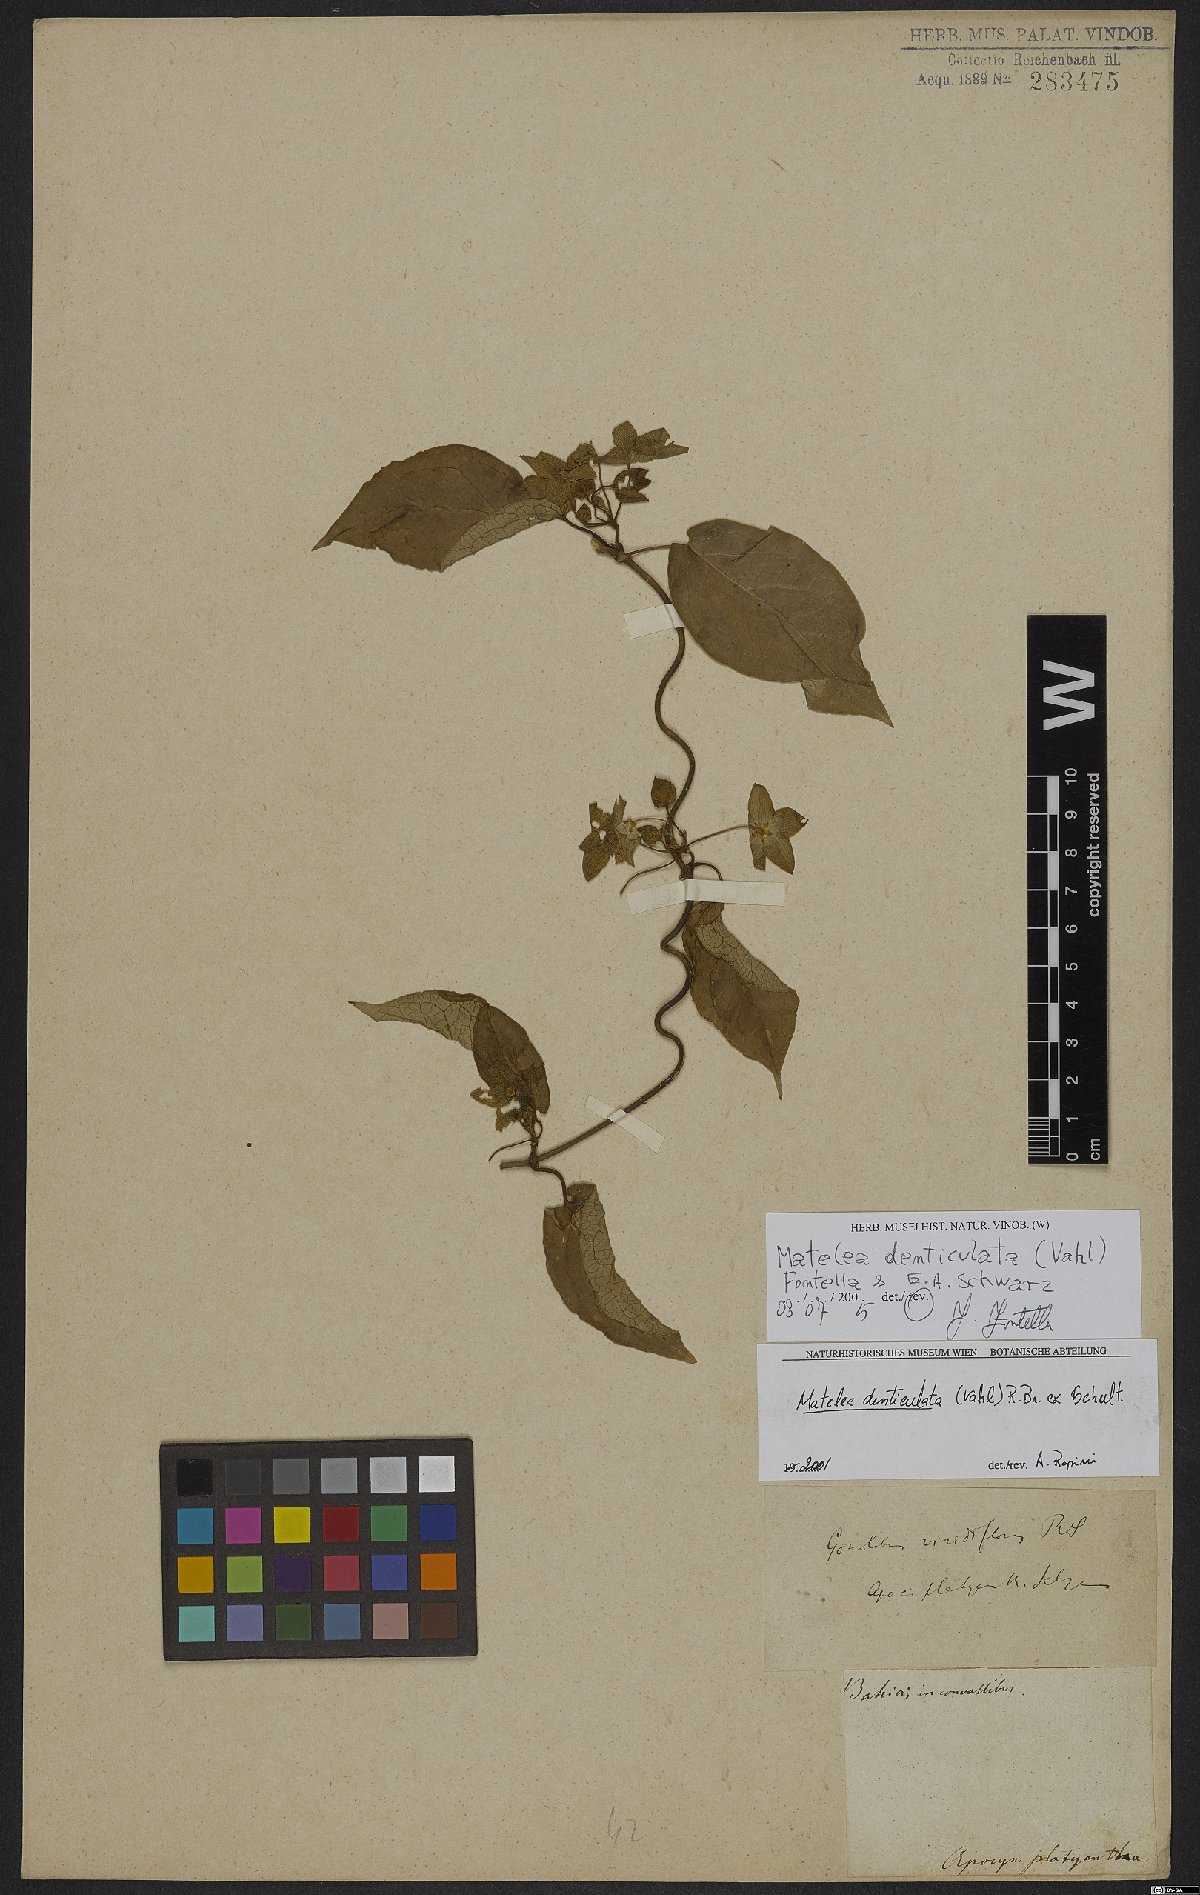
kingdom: Plantae
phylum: Tracheophyta
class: Magnoliopsida
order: Gentianales
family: Apocynaceae
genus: Chloropetalum
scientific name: Chloropetalum denticulatum
